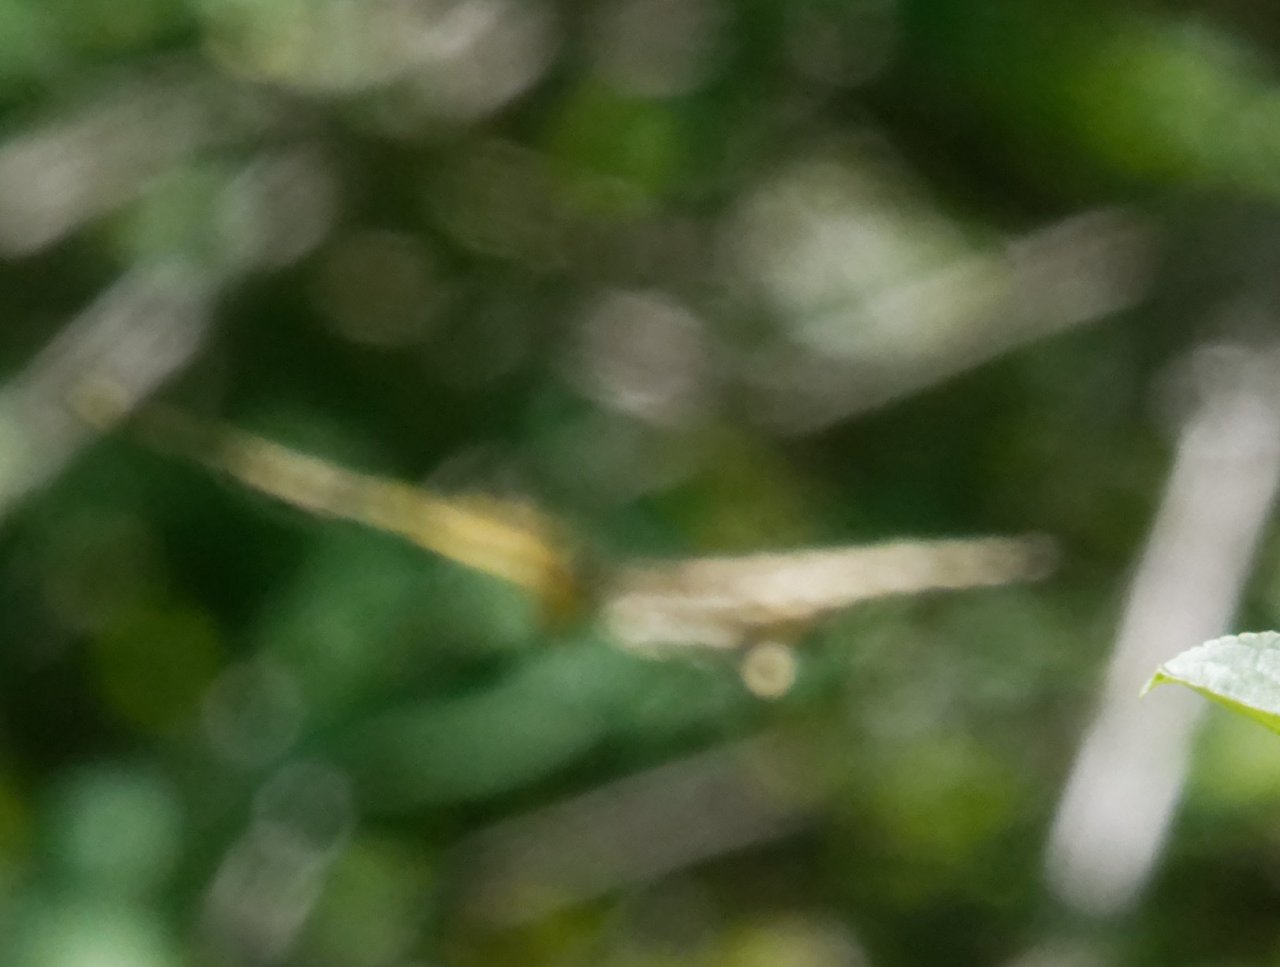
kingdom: Animalia
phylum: Arthropoda
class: Insecta
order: Lepidoptera
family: Papilionidae
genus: Papilio
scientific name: Papilio cresphontes
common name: Eastern Giant Swallowtail
